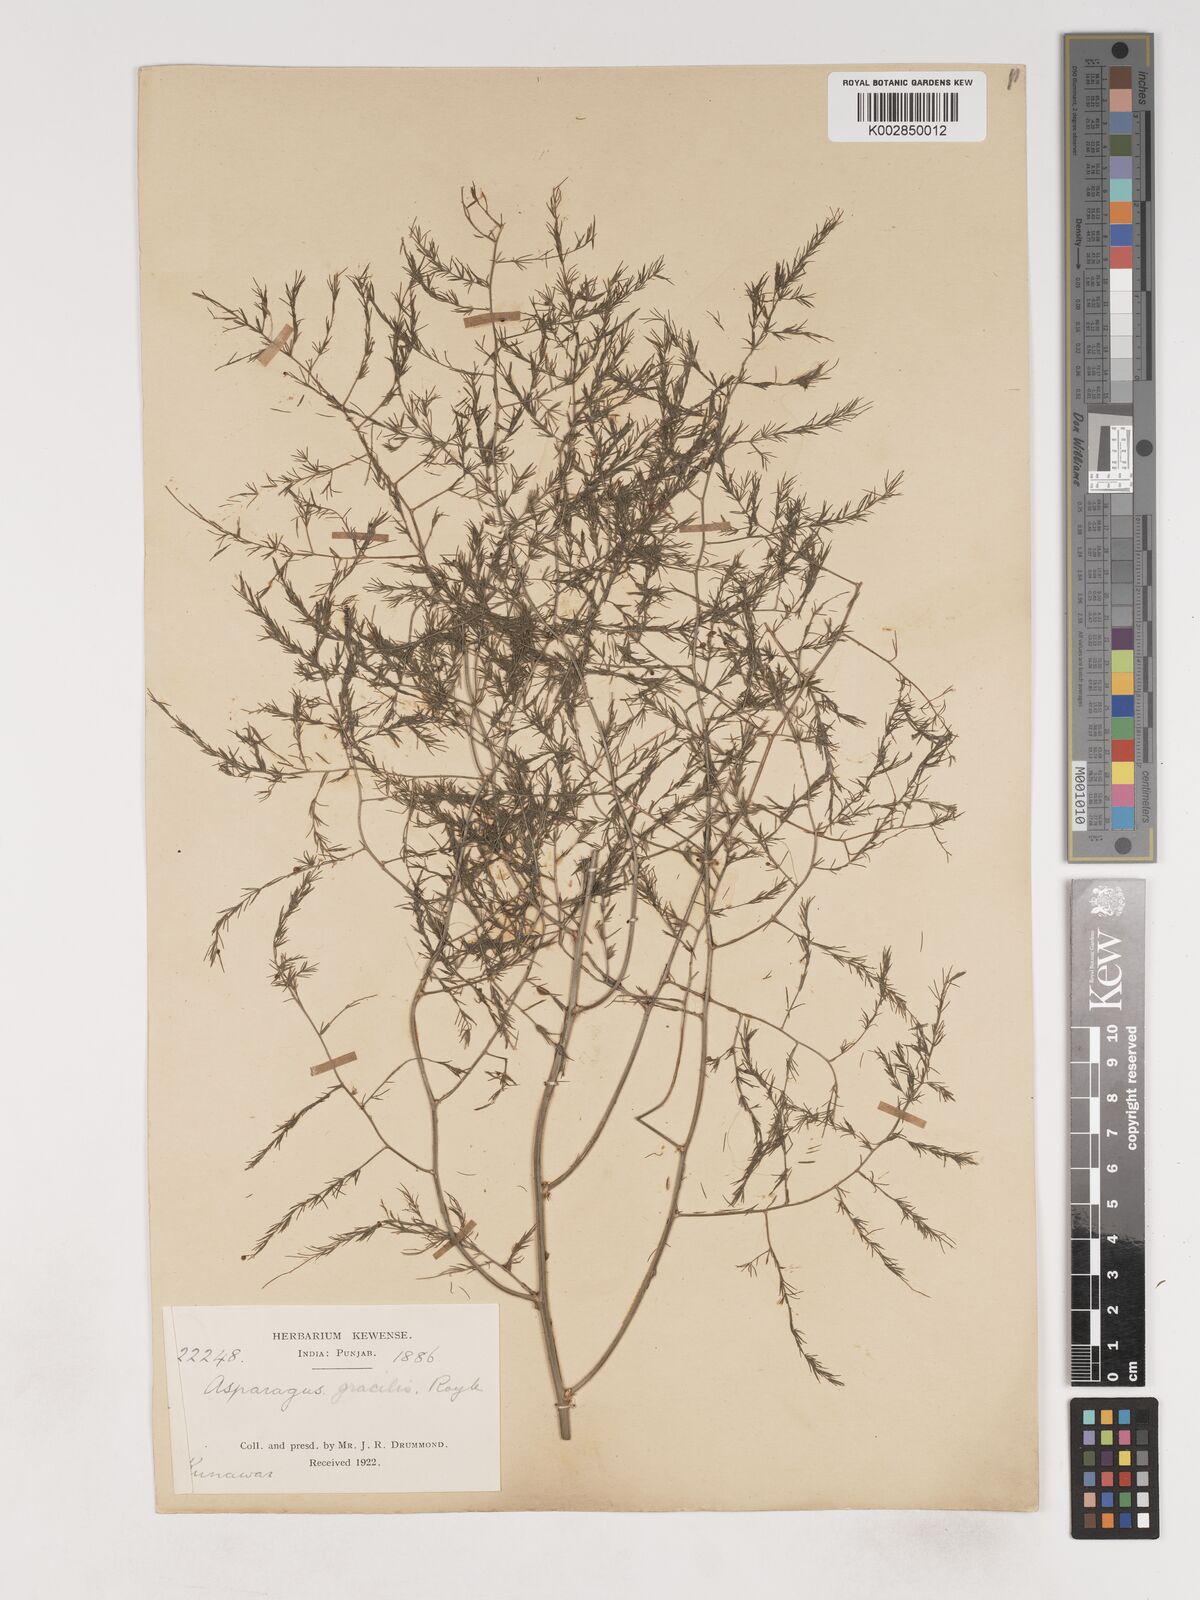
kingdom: Plantae
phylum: Tracheophyta
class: Liliopsida
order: Asparagales
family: Asparagaceae
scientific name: Asparagaceae
